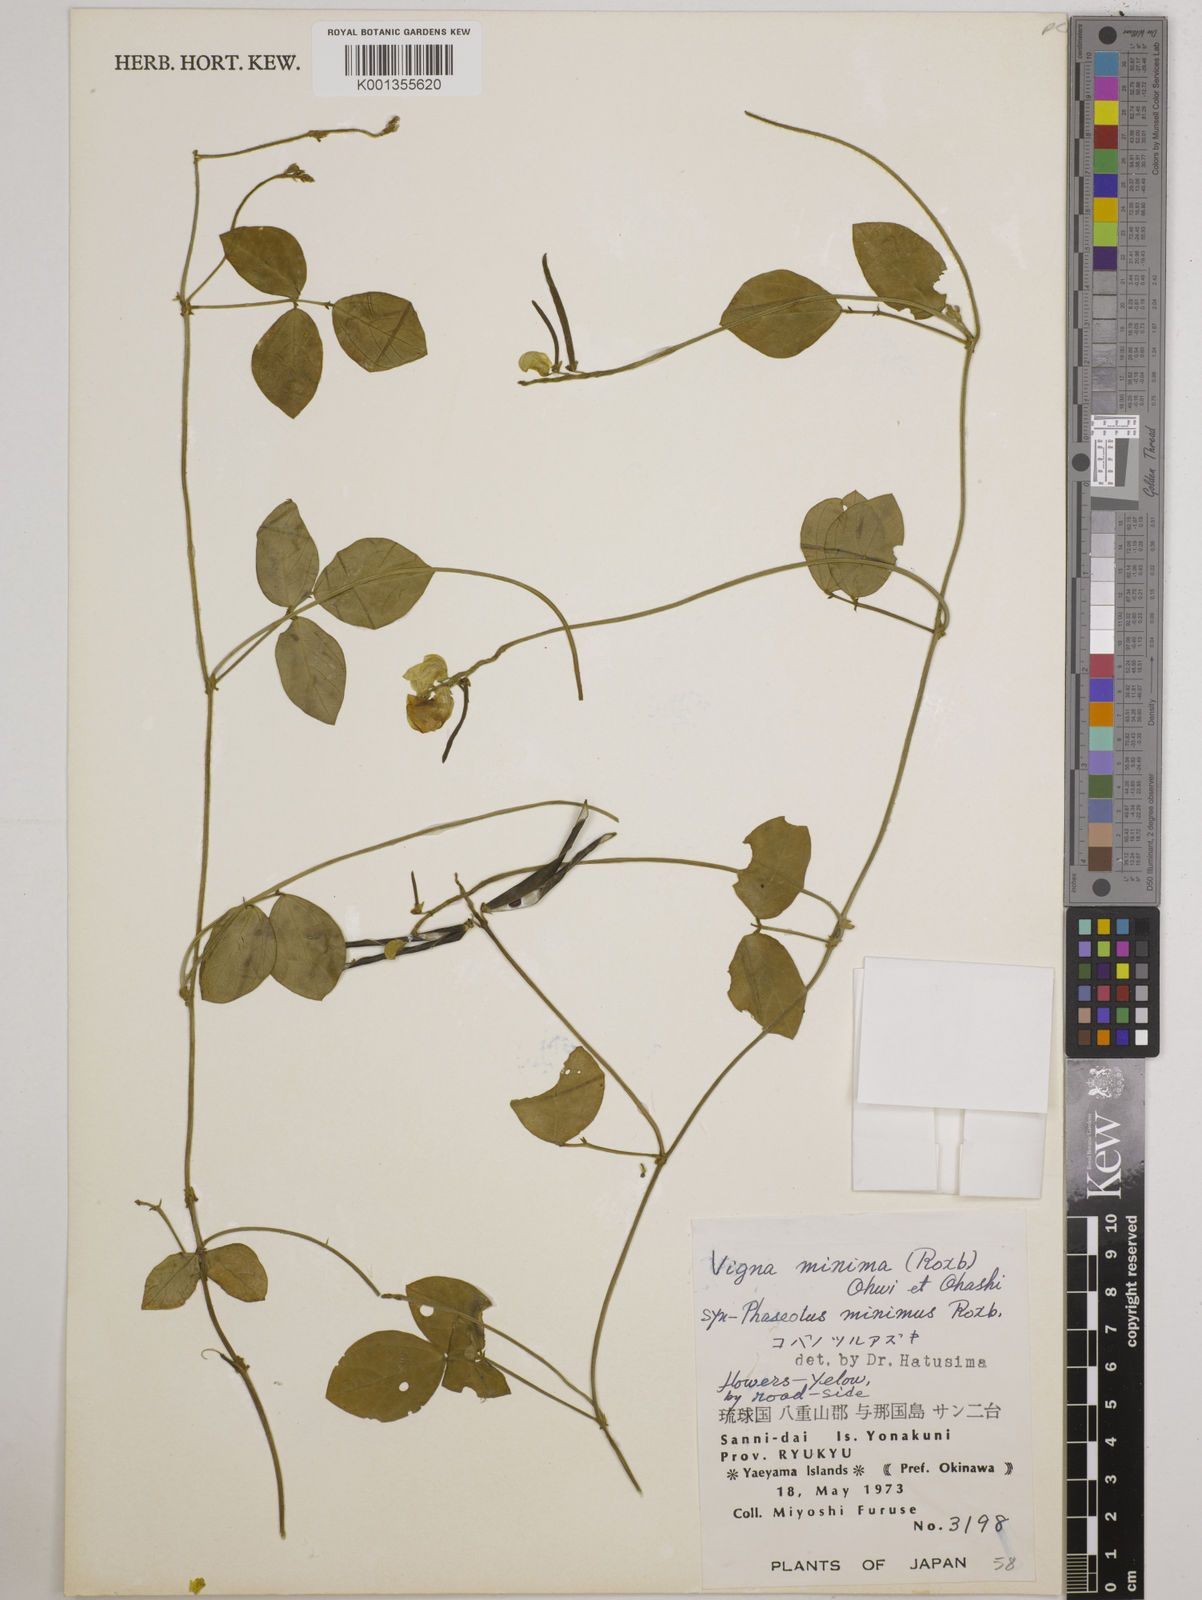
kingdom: Plantae
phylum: Tracheophyta
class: Magnoliopsida
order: Fabales
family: Fabaceae
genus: Vigna
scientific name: Vigna minima
